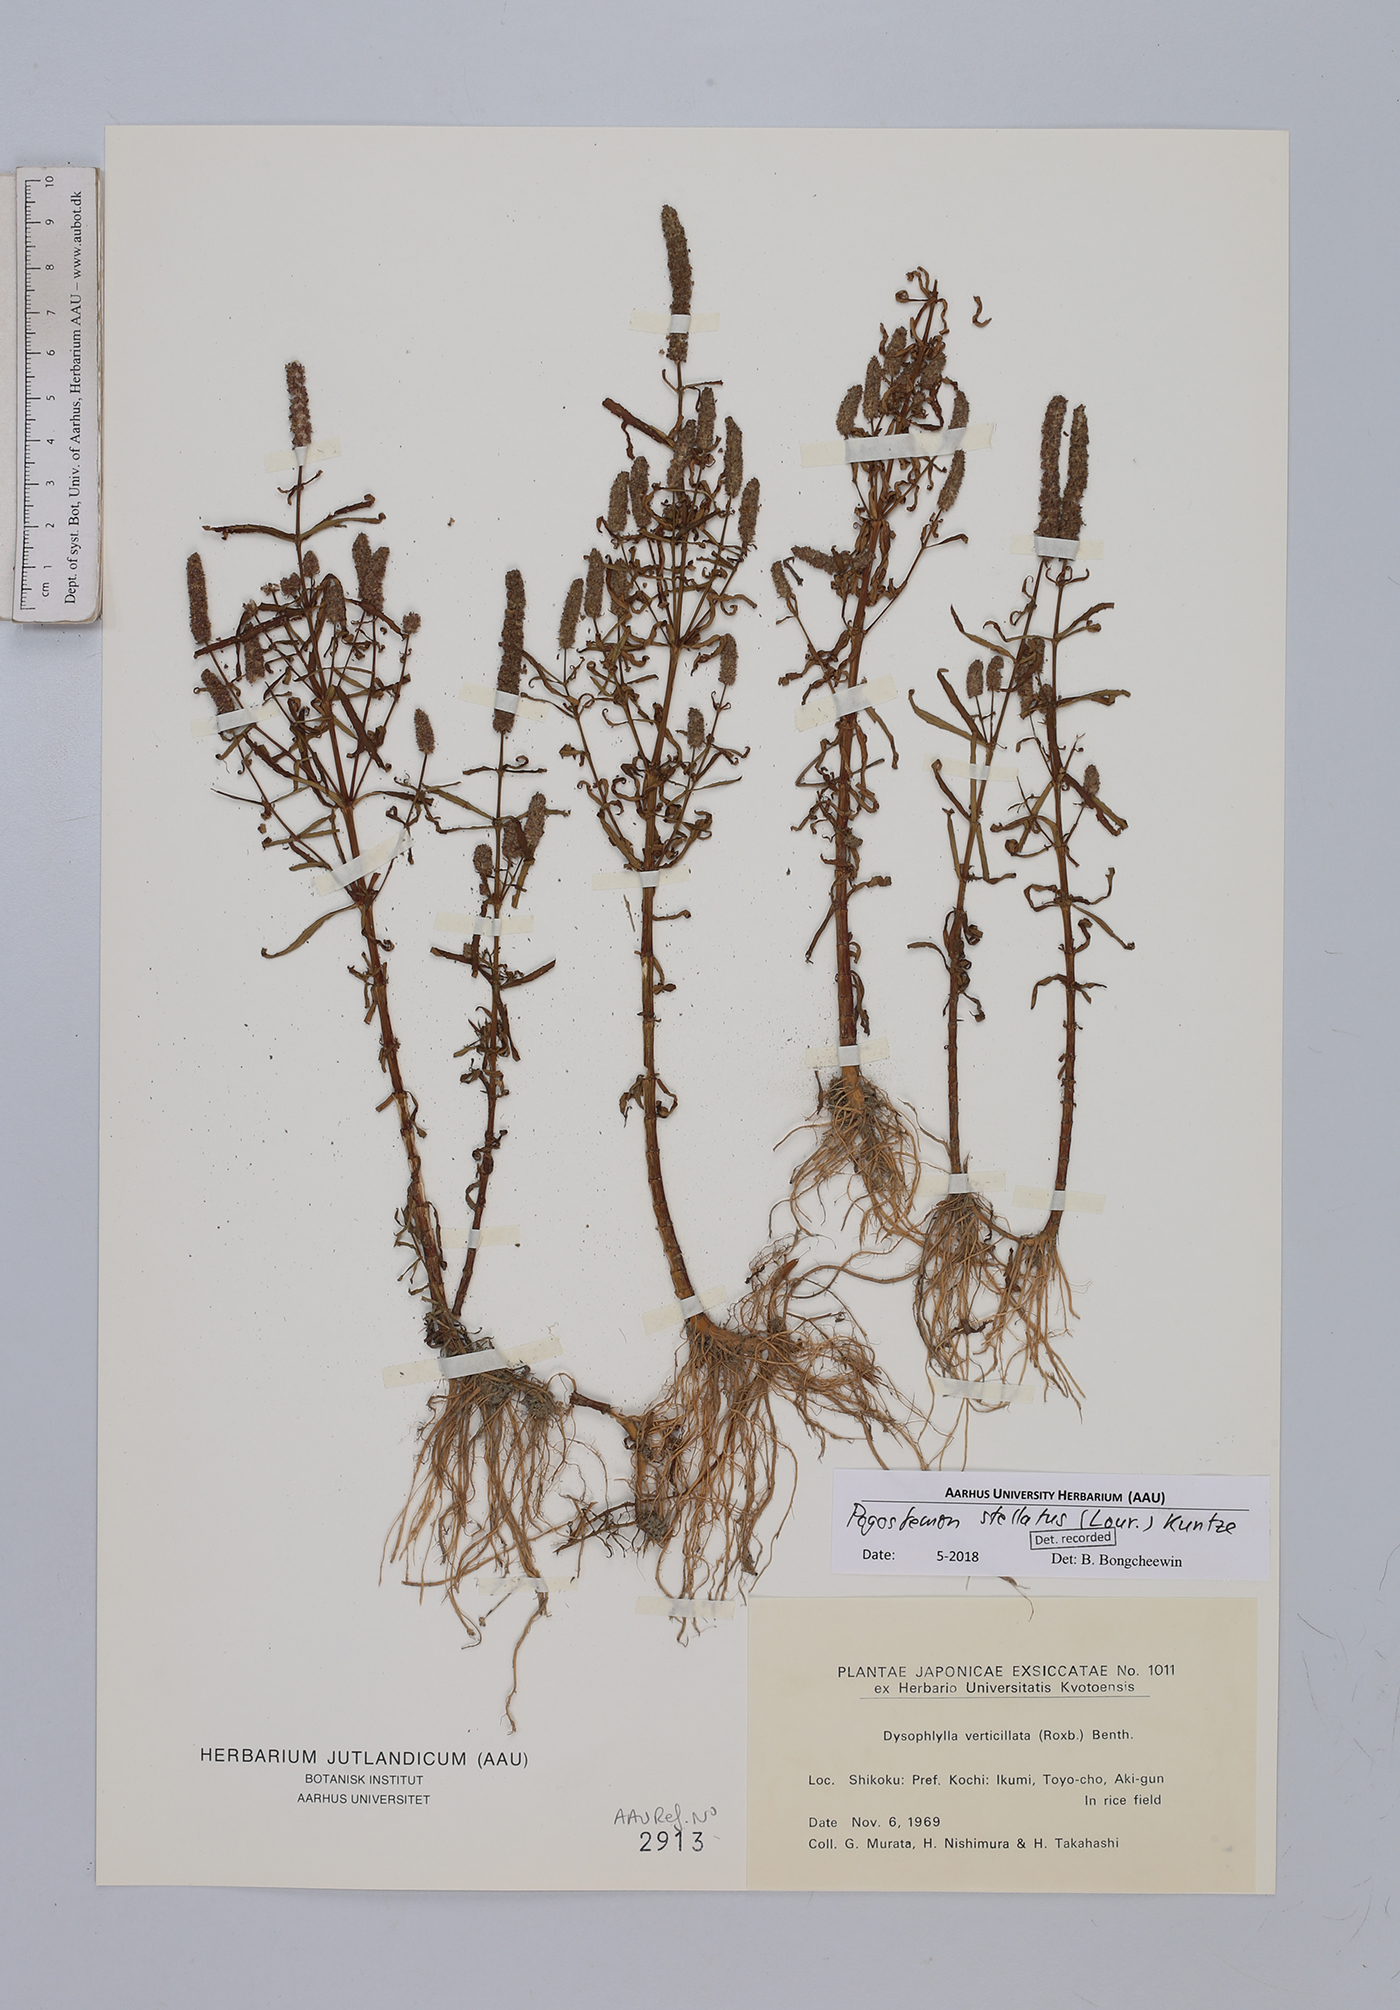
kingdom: Plantae
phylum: Tracheophyta
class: Magnoliopsida
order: Lamiales
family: Lamiaceae
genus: Pogostemon
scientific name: Pogostemon stellatus
